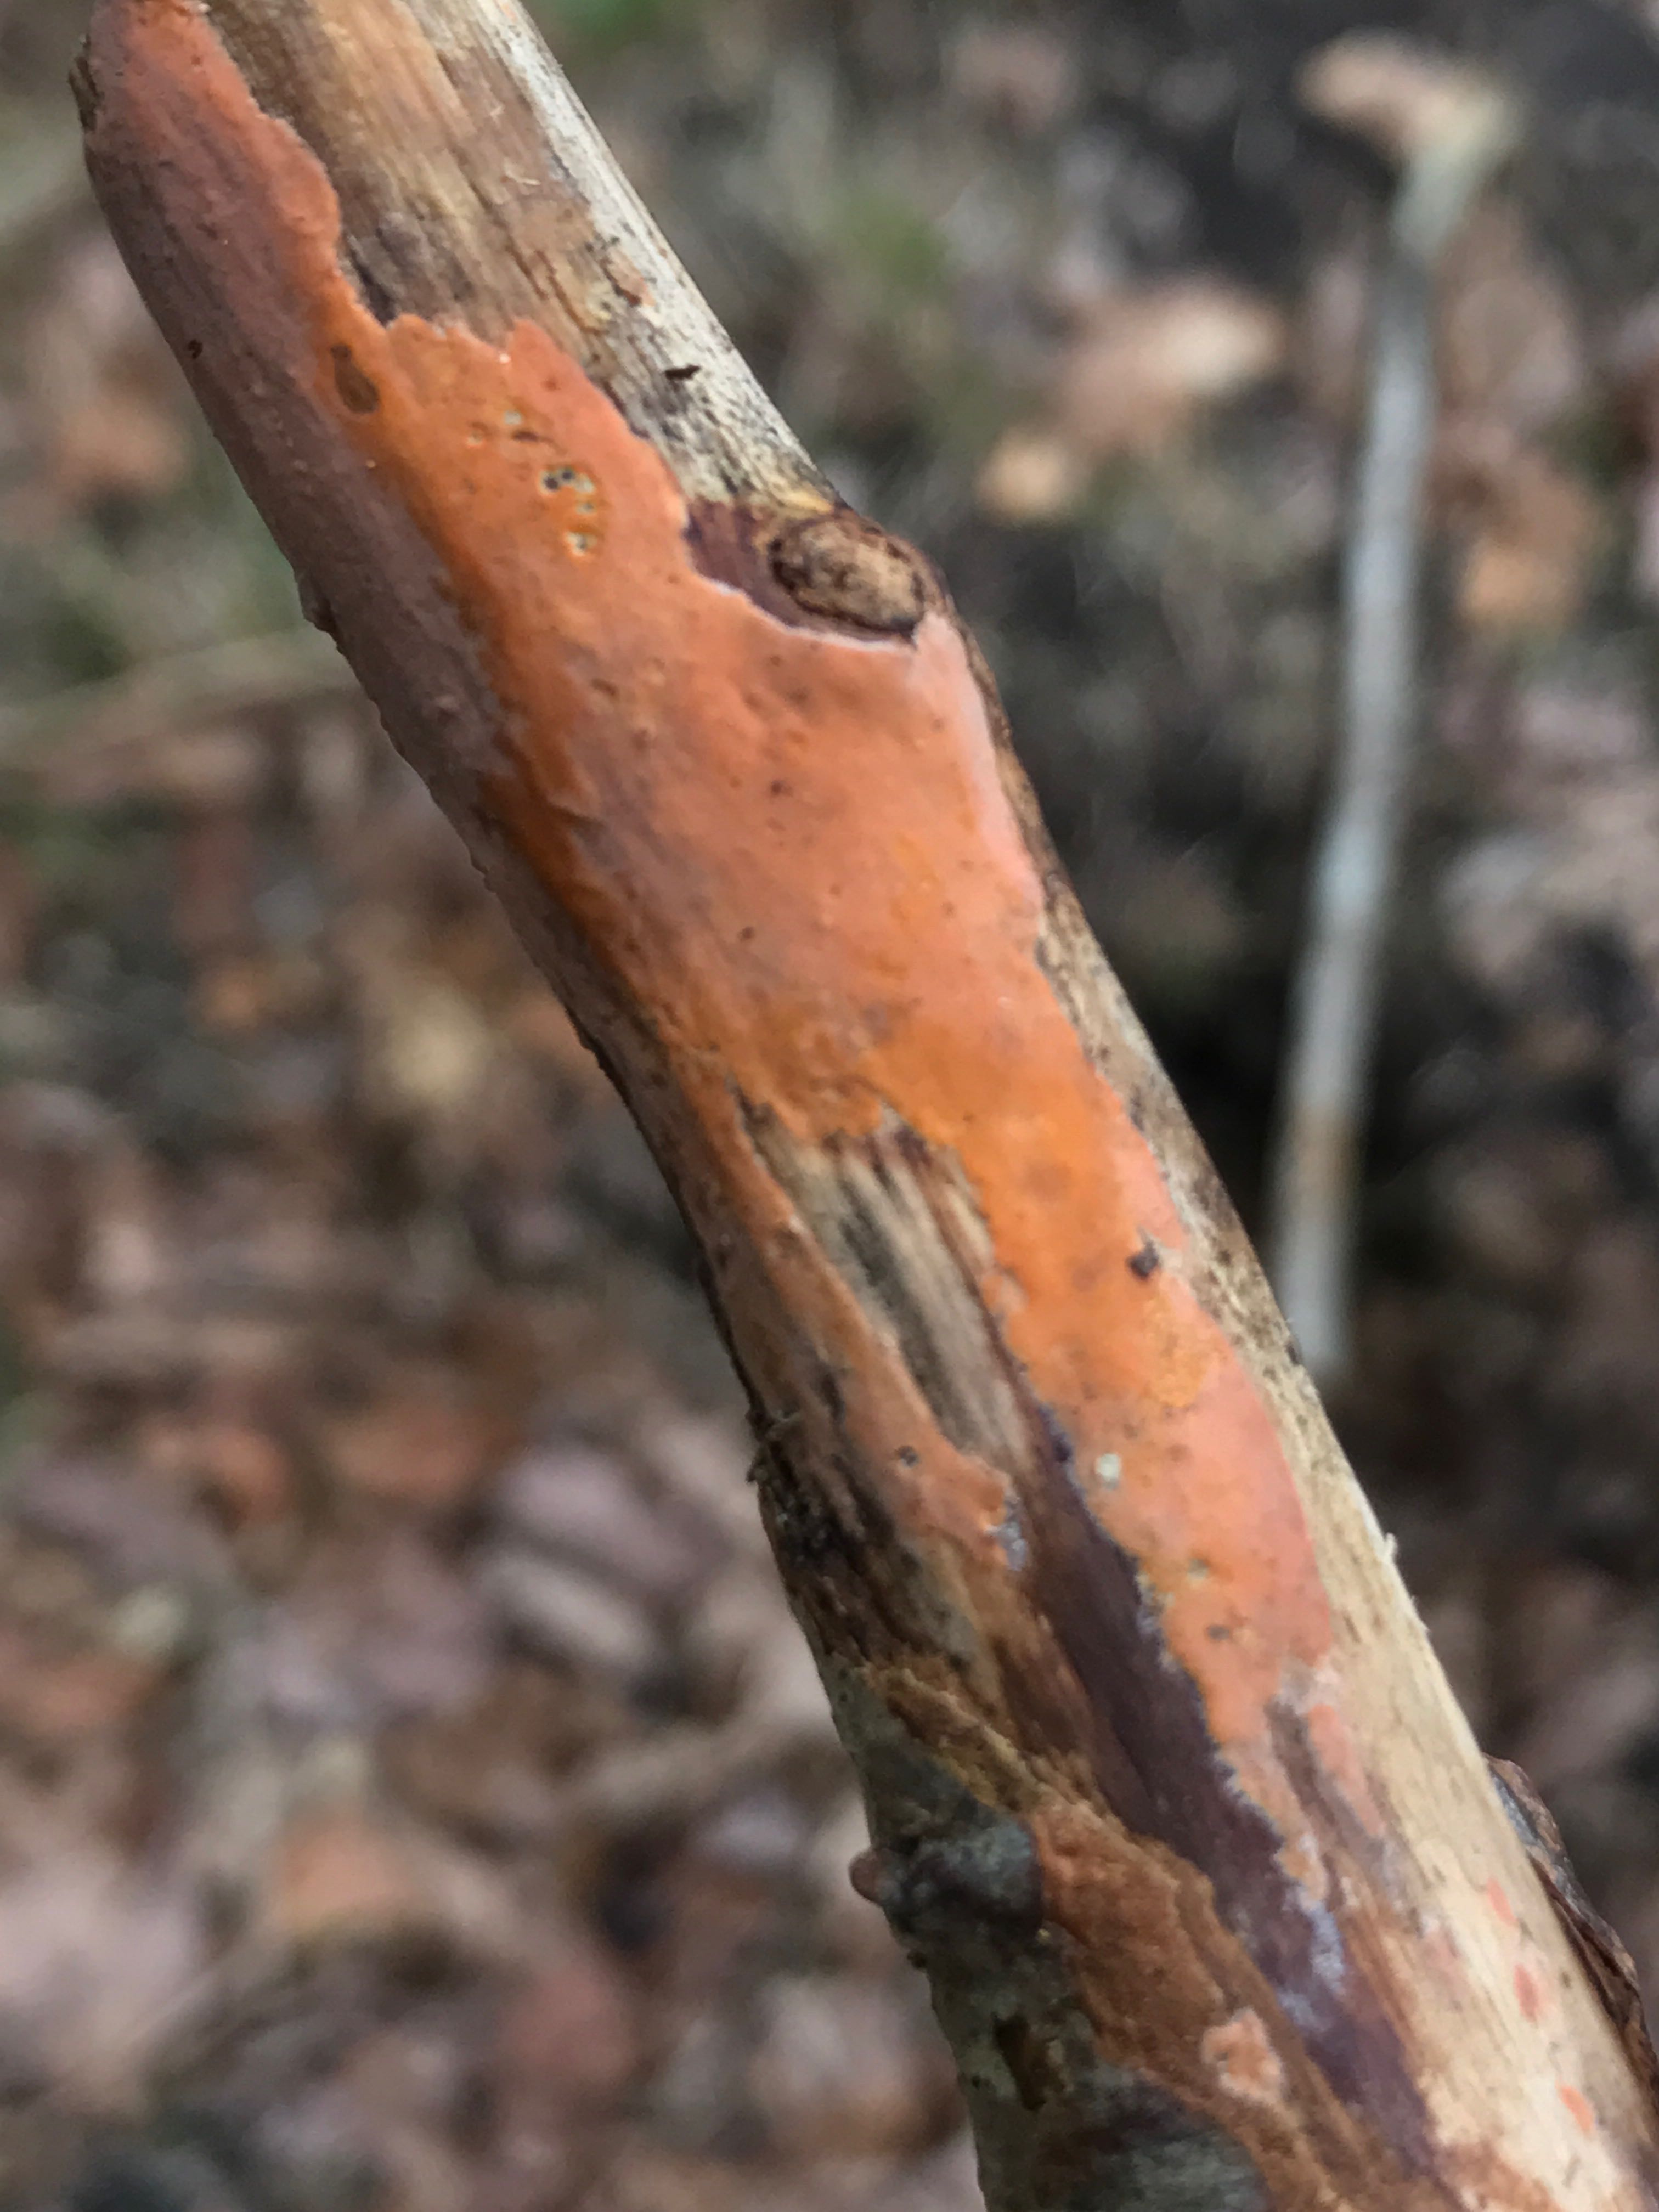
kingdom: Fungi
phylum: Basidiomycota
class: Agaricomycetes
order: Russulales
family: Peniophoraceae
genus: Peniophora
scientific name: Peniophora incarnata
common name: laksefarvet voksskind
